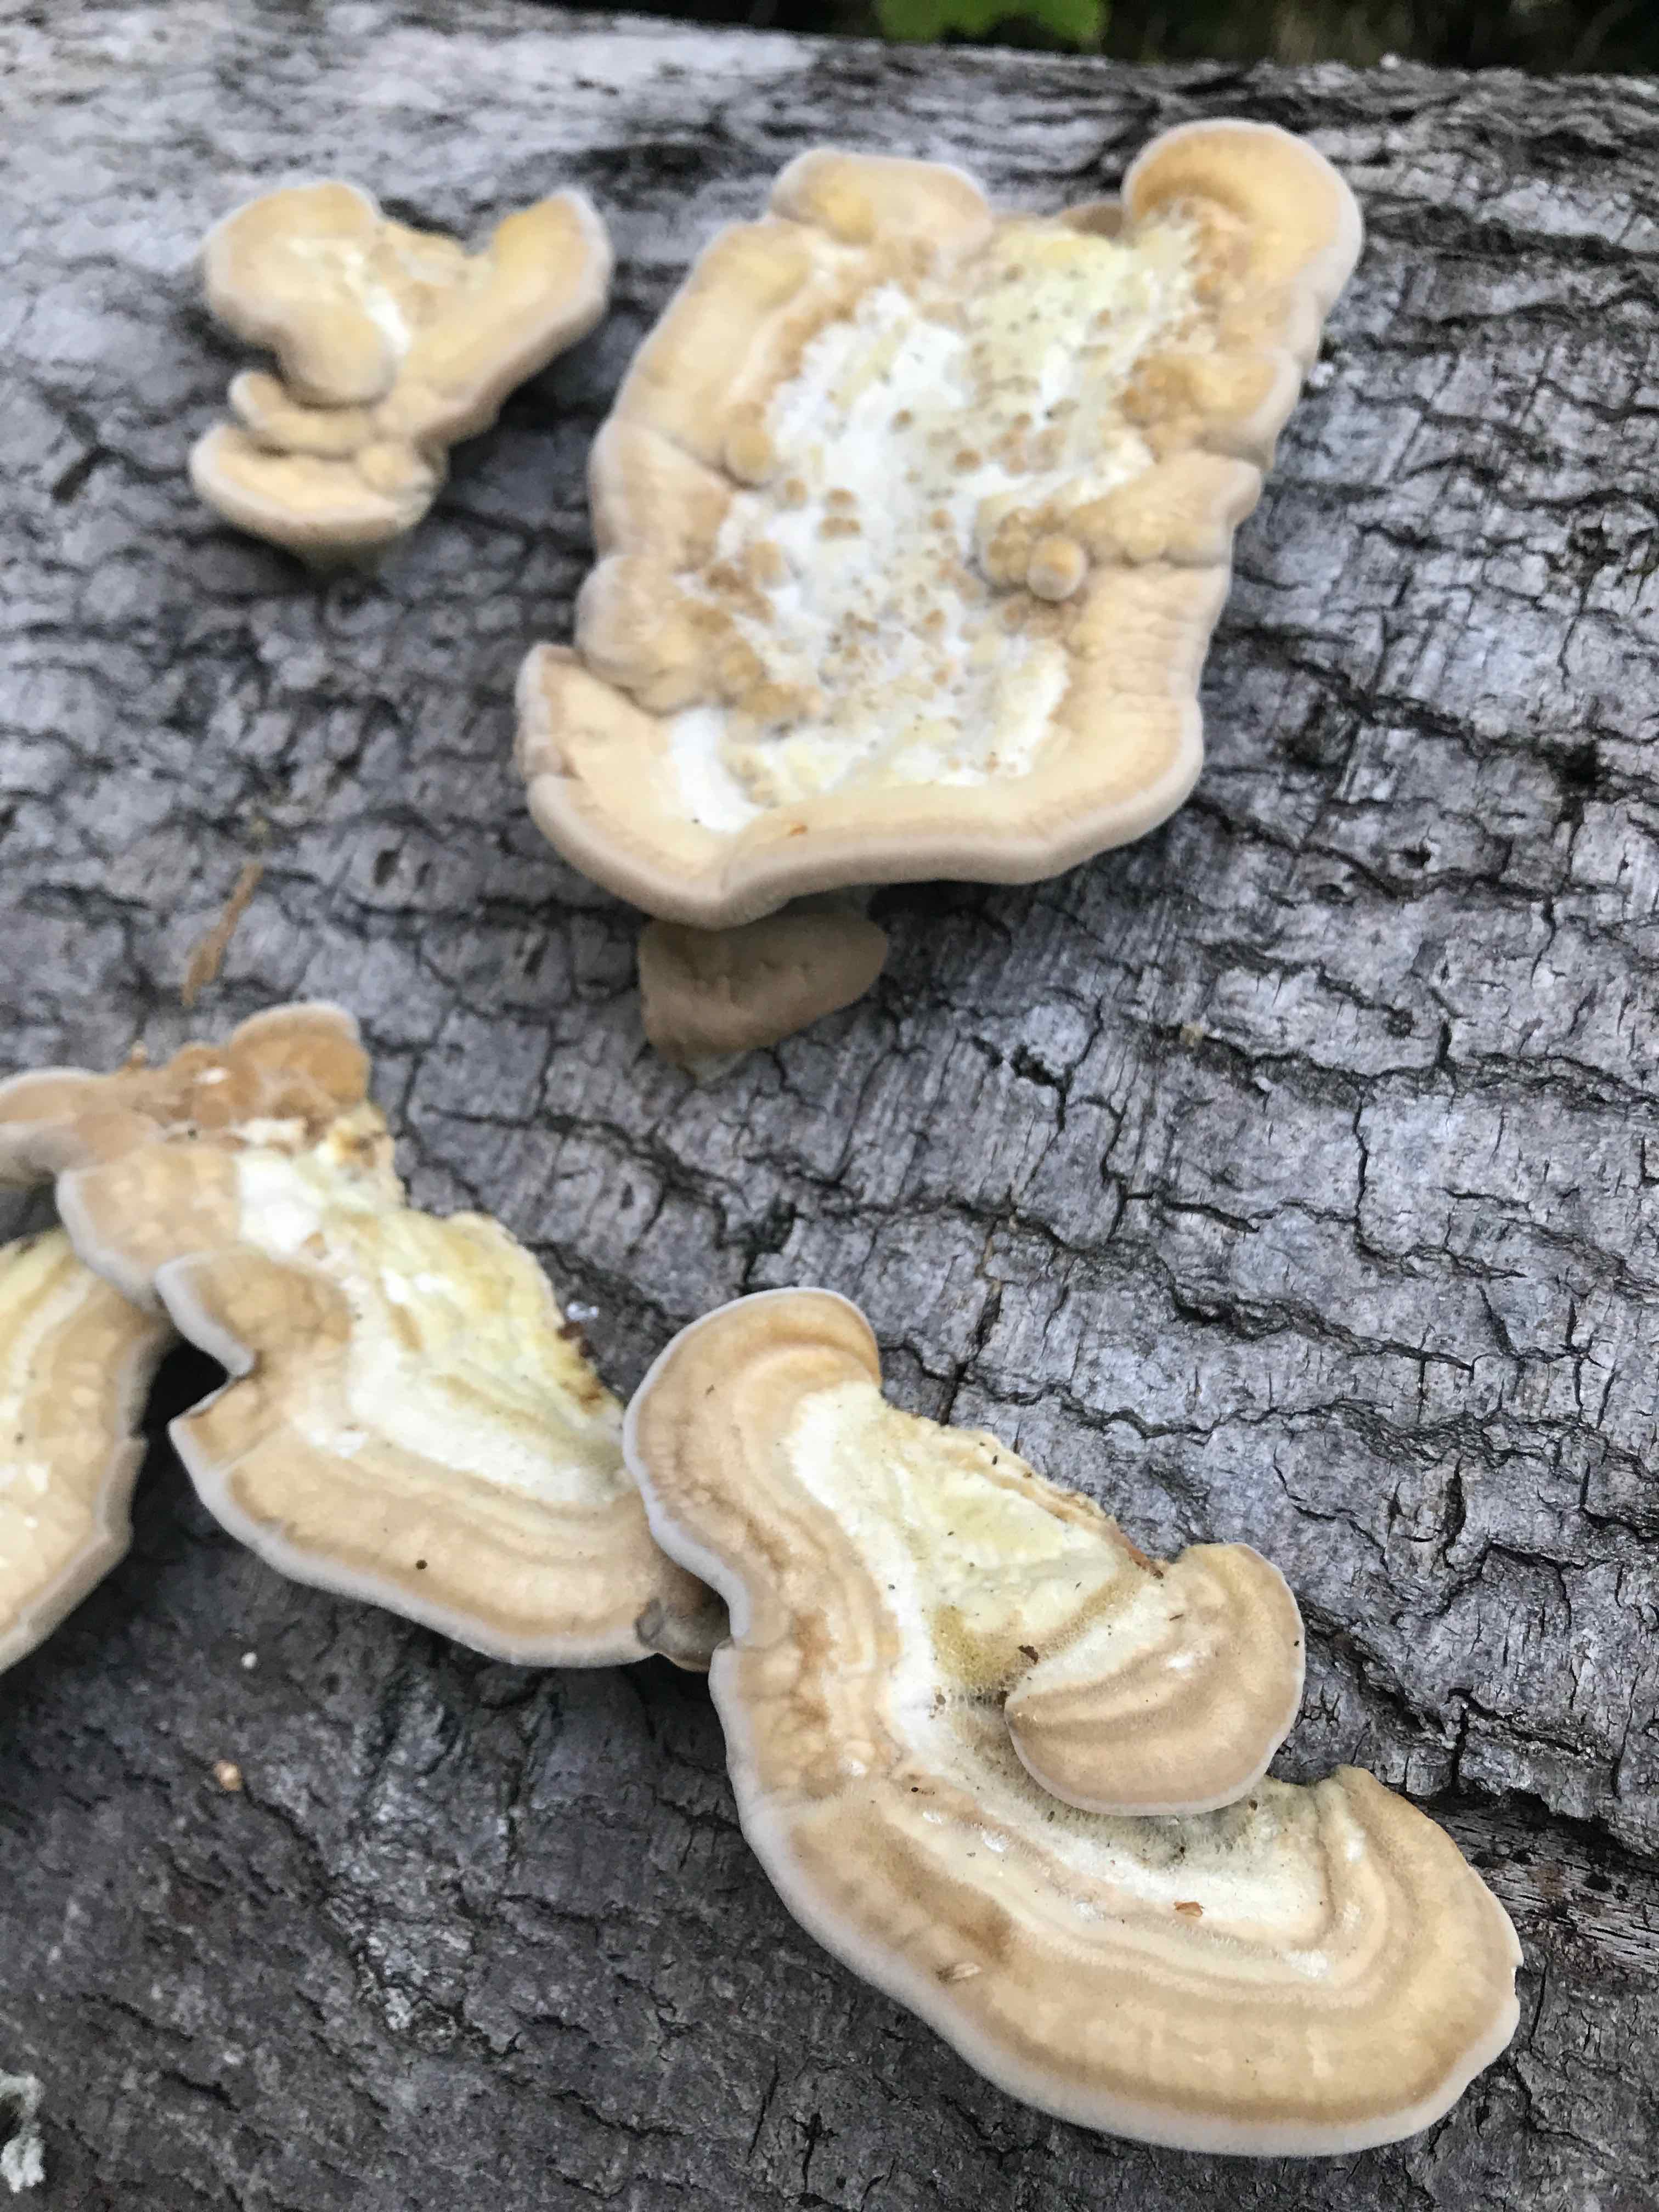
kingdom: Fungi
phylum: Basidiomycota
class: Agaricomycetes
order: Polyporales
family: Polyporaceae
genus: Trametes
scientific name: Trametes hirsuta
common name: håret læderporesvamp
